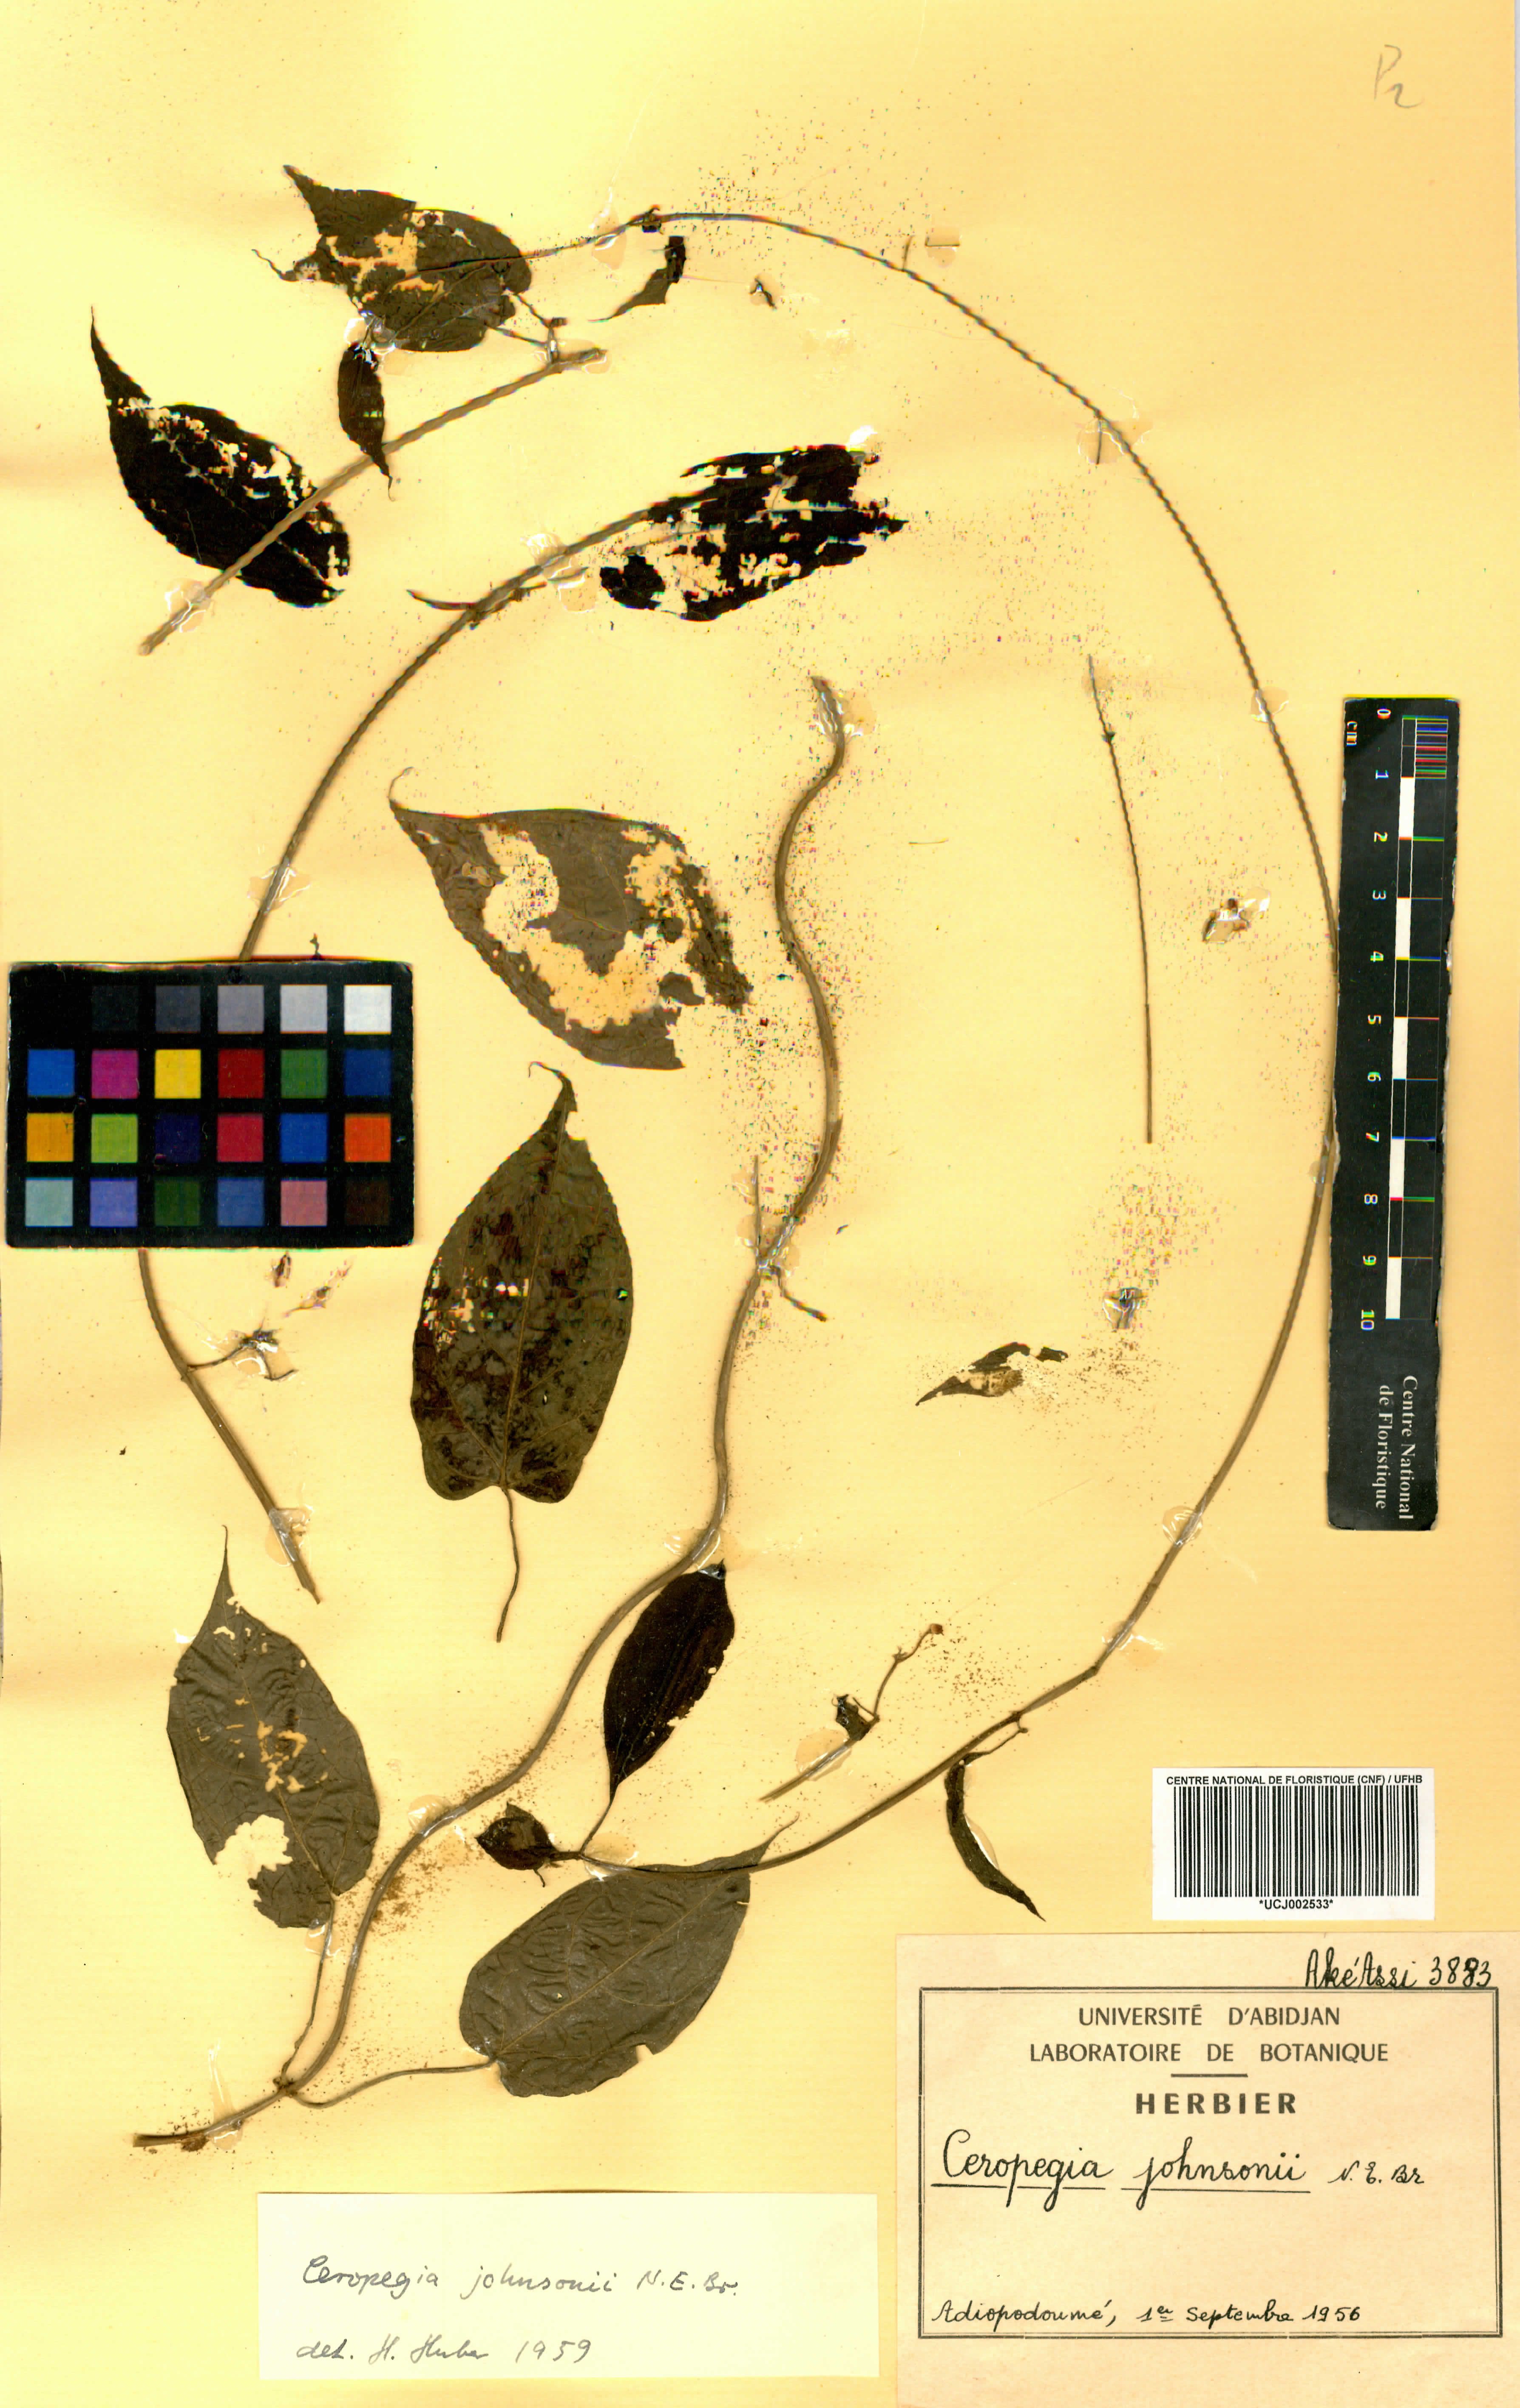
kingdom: Plantae
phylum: Tracheophyta
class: Magnoliopsida
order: Gentianales
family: Apocynaceae
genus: Ceropegia
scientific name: Ceropegia johnsonii
